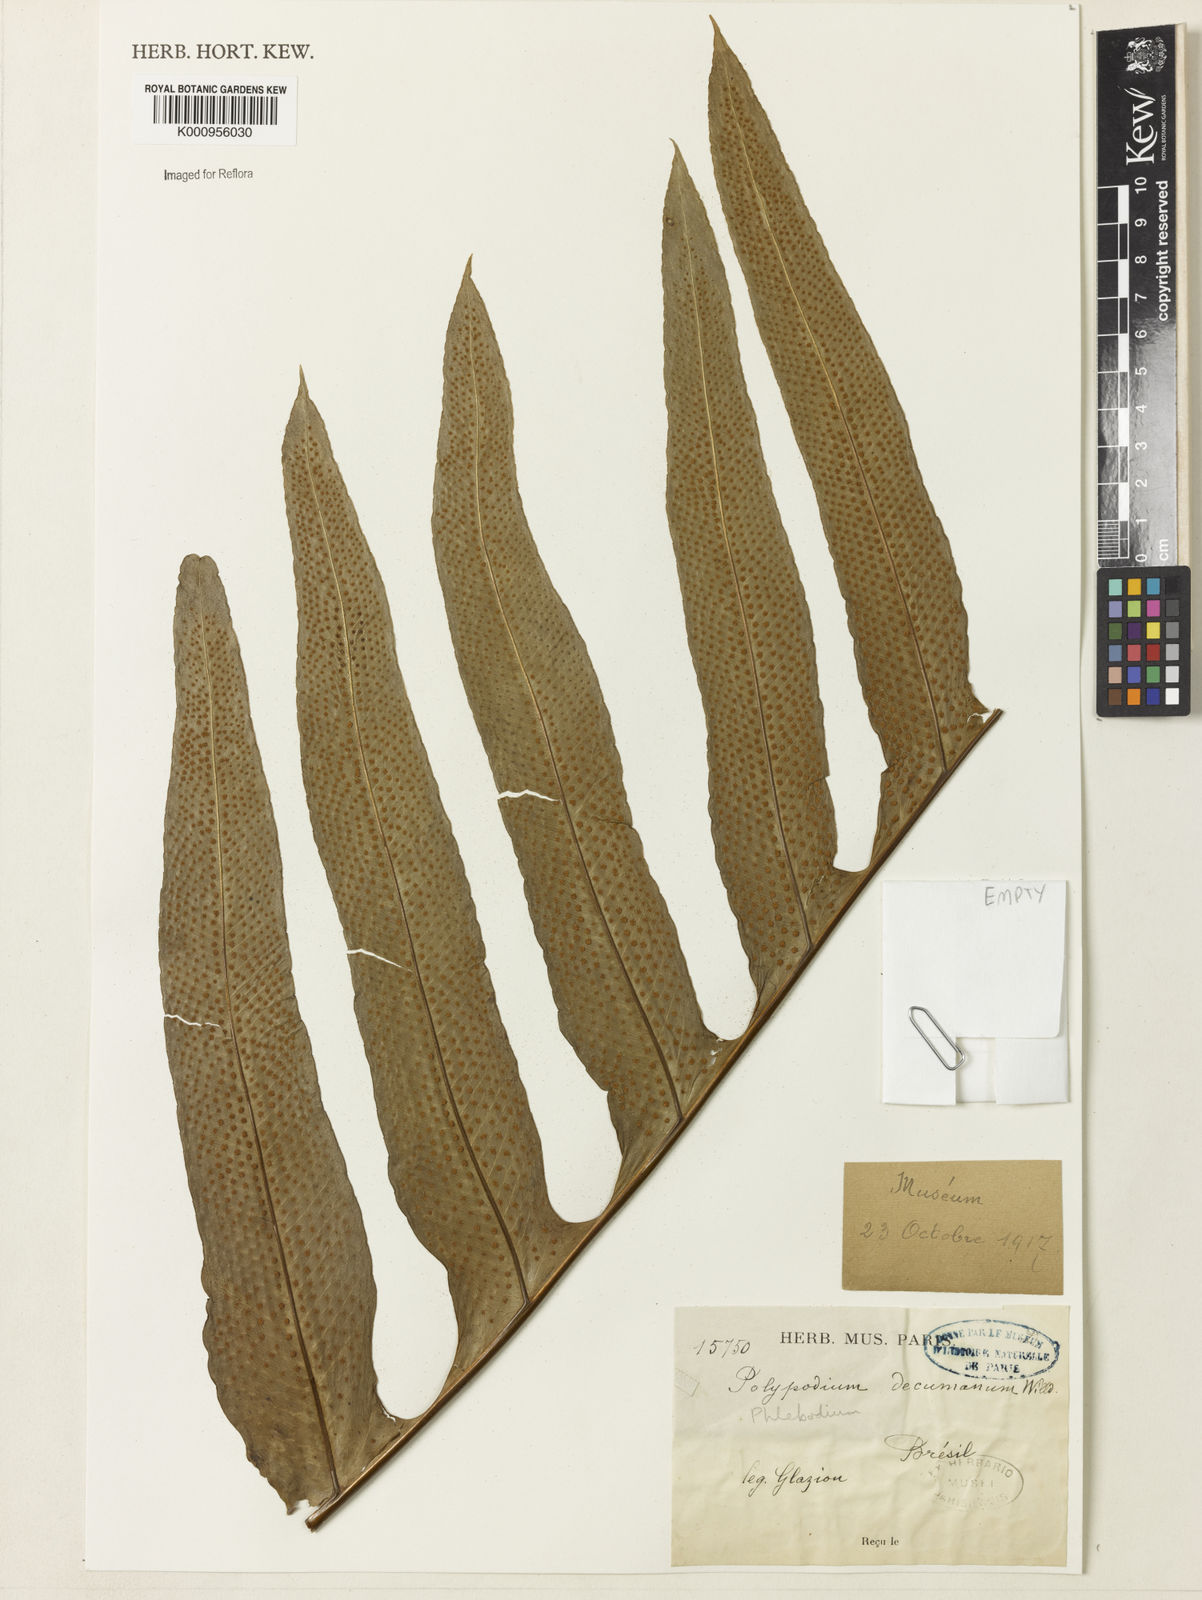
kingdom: Plantae
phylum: Tracheophyta
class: Polypodiopsida
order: Polypodiales
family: Polypodiaceae
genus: Phlebodium
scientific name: Phlebodium decumanum
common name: Golden polypod
